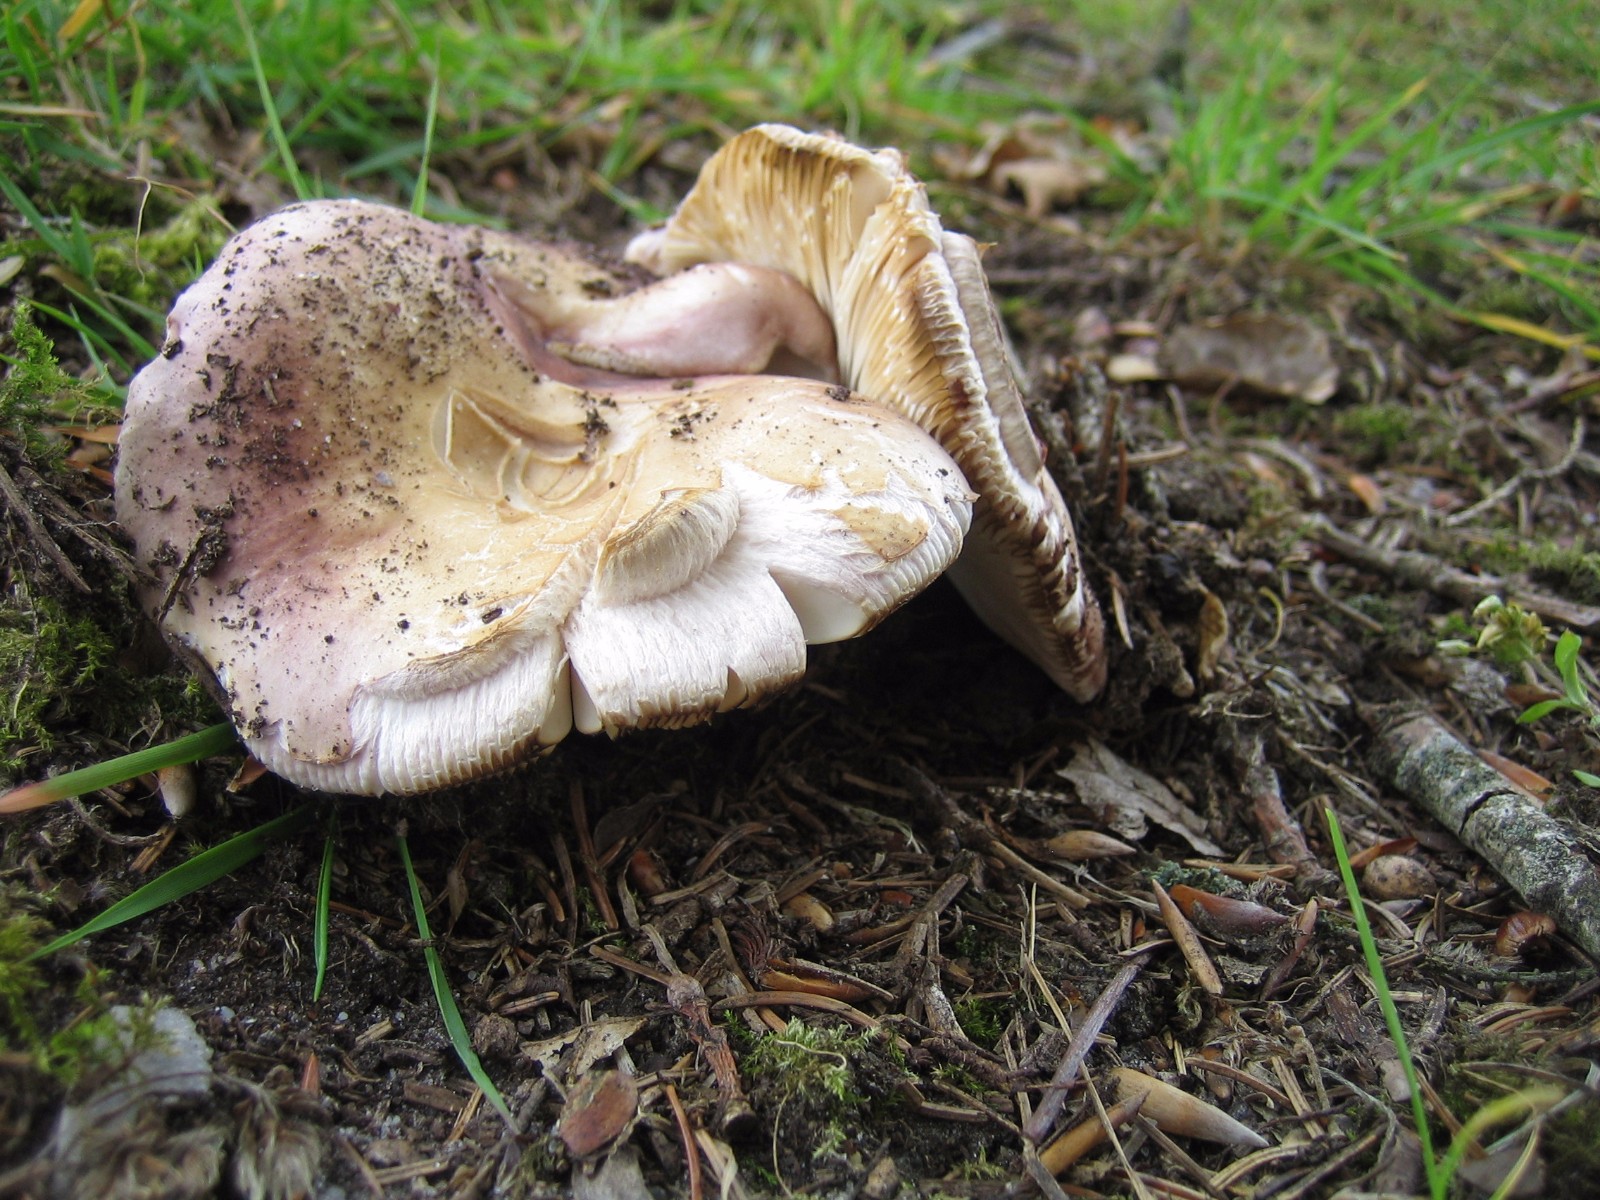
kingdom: Fungi
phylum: Basidiomycota
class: Agaricomycetes
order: Russulales
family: Russulaceae
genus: Russula
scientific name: Russula vesca
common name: spiselig skørhat
